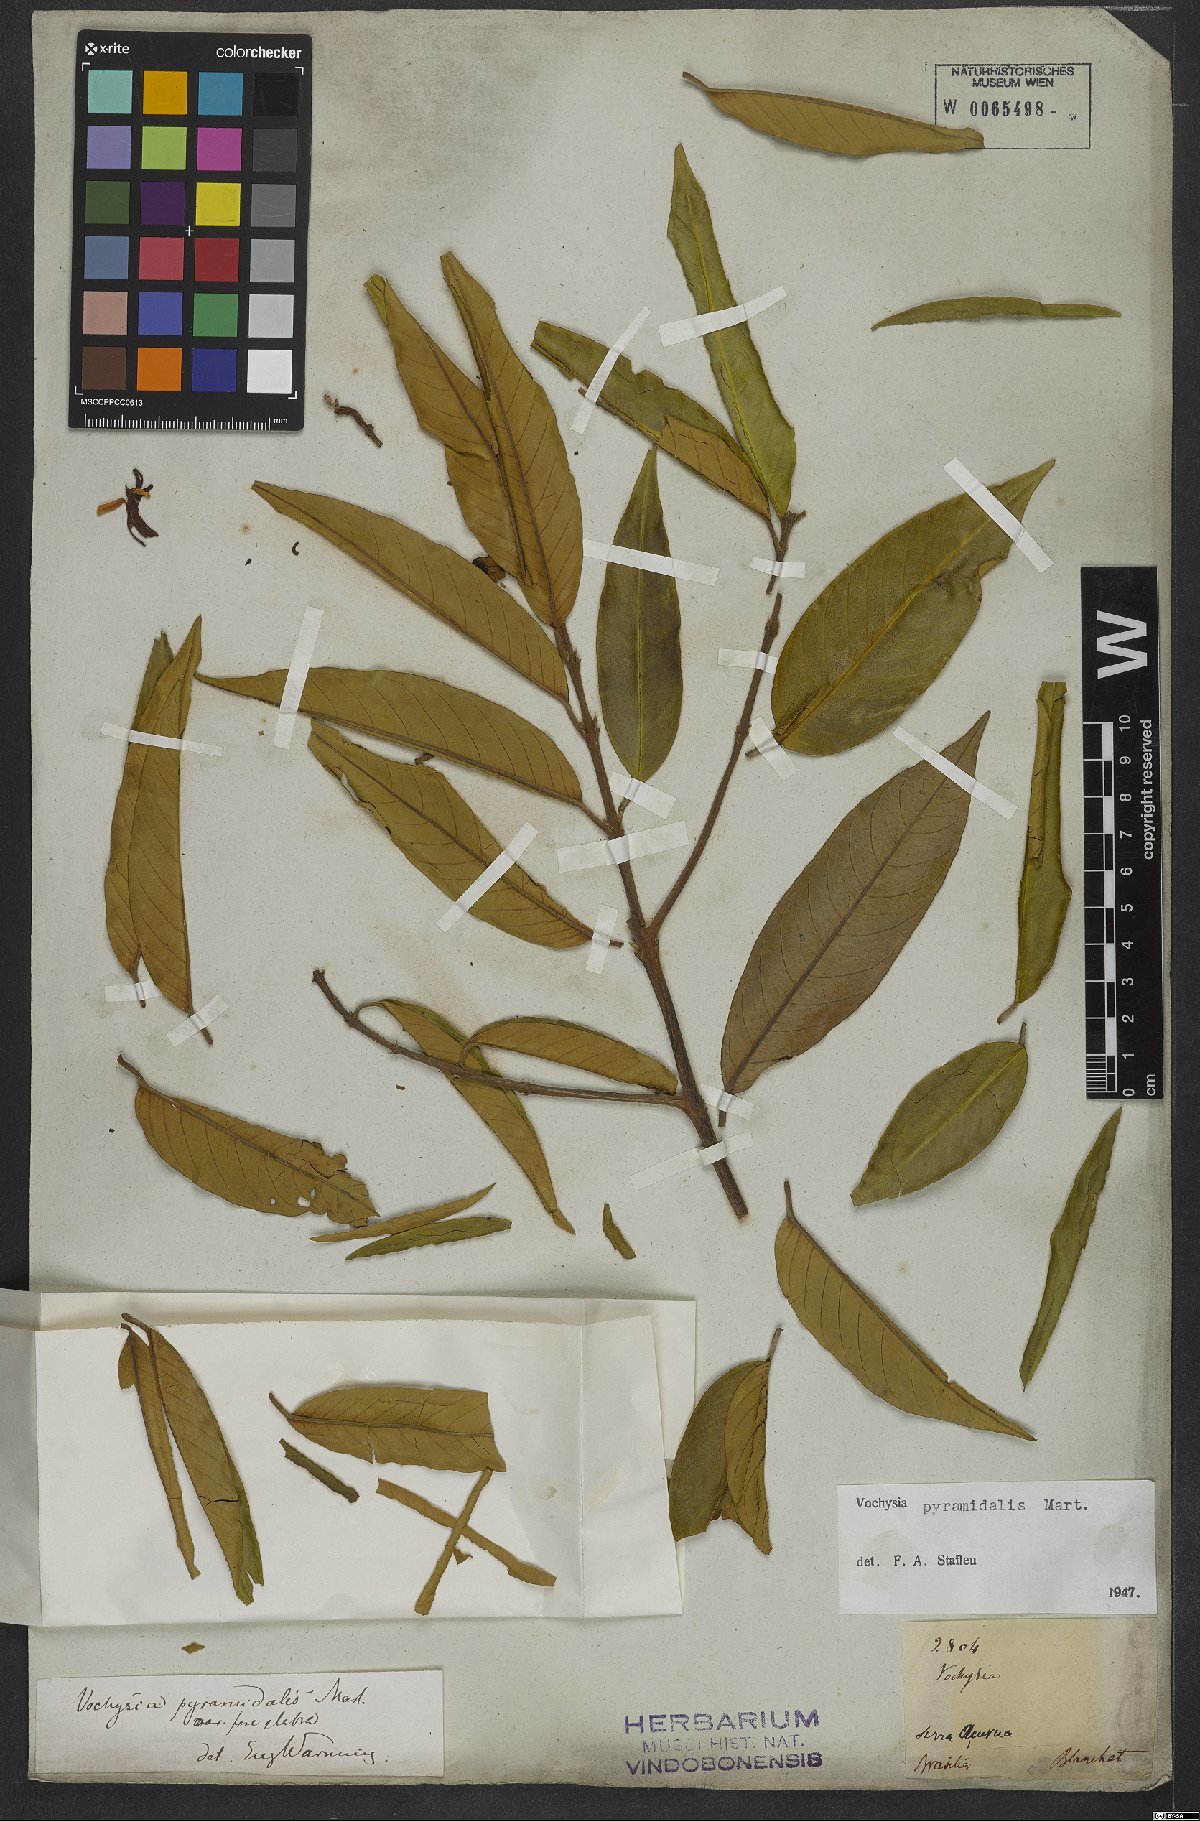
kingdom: Plantae
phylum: Tracheophyta
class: Magnoliopsida
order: Myrtales
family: Vochysiaceae
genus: Vochysia
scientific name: Vochysia pyramidalis
